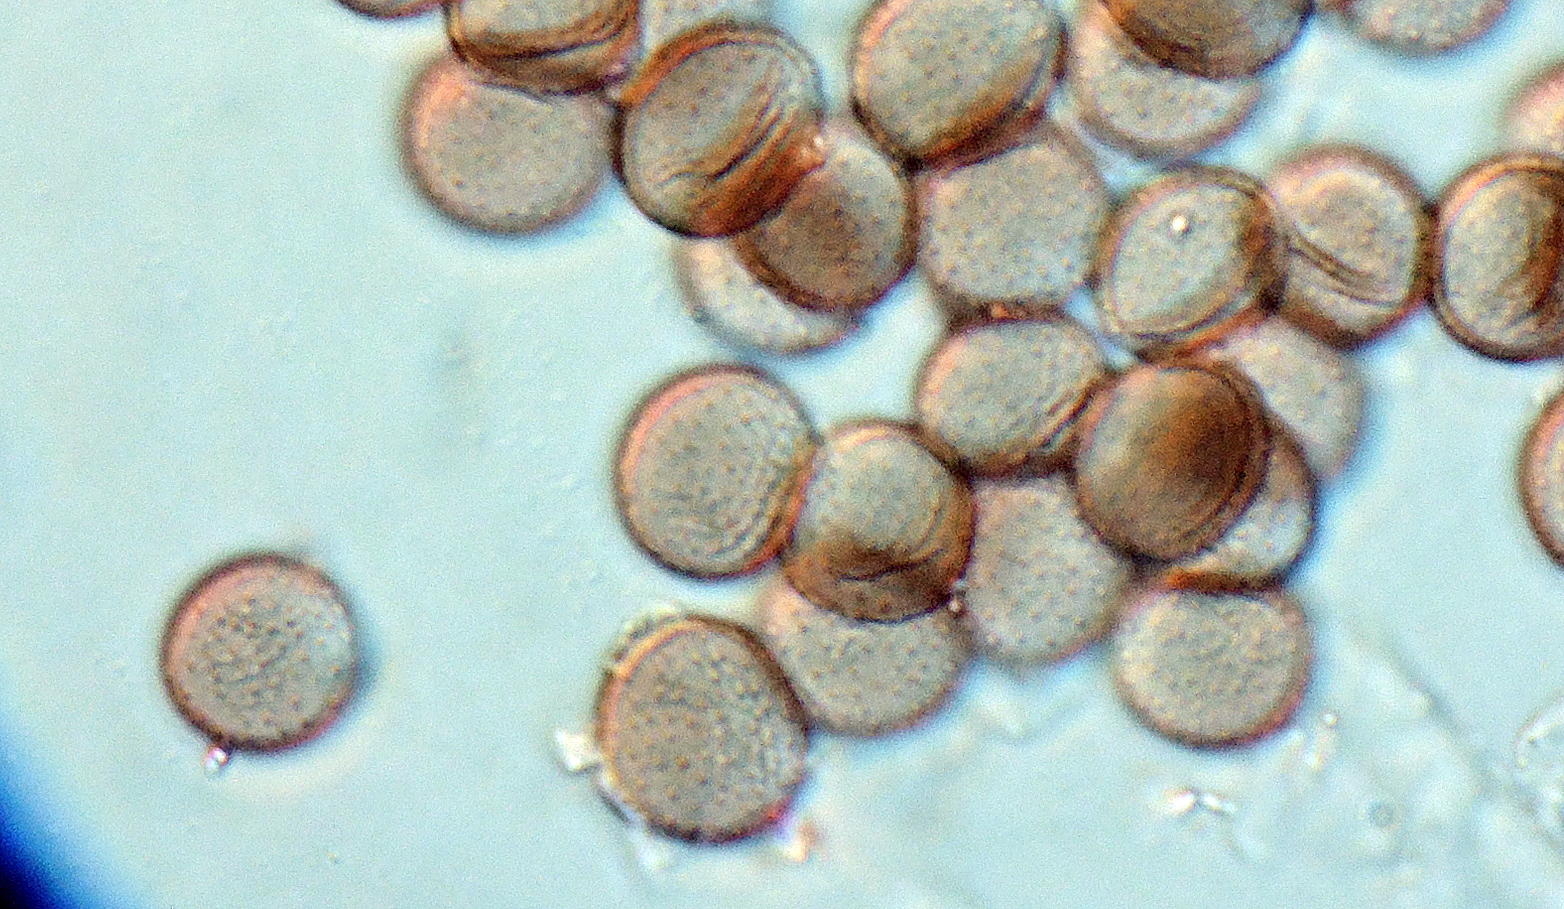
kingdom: Protozoa
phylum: Mycetozoa
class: Myxomycetes
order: Stemonitidales
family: Stemonitidaceae
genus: Lamproderma
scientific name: Lamproderma scintillans
